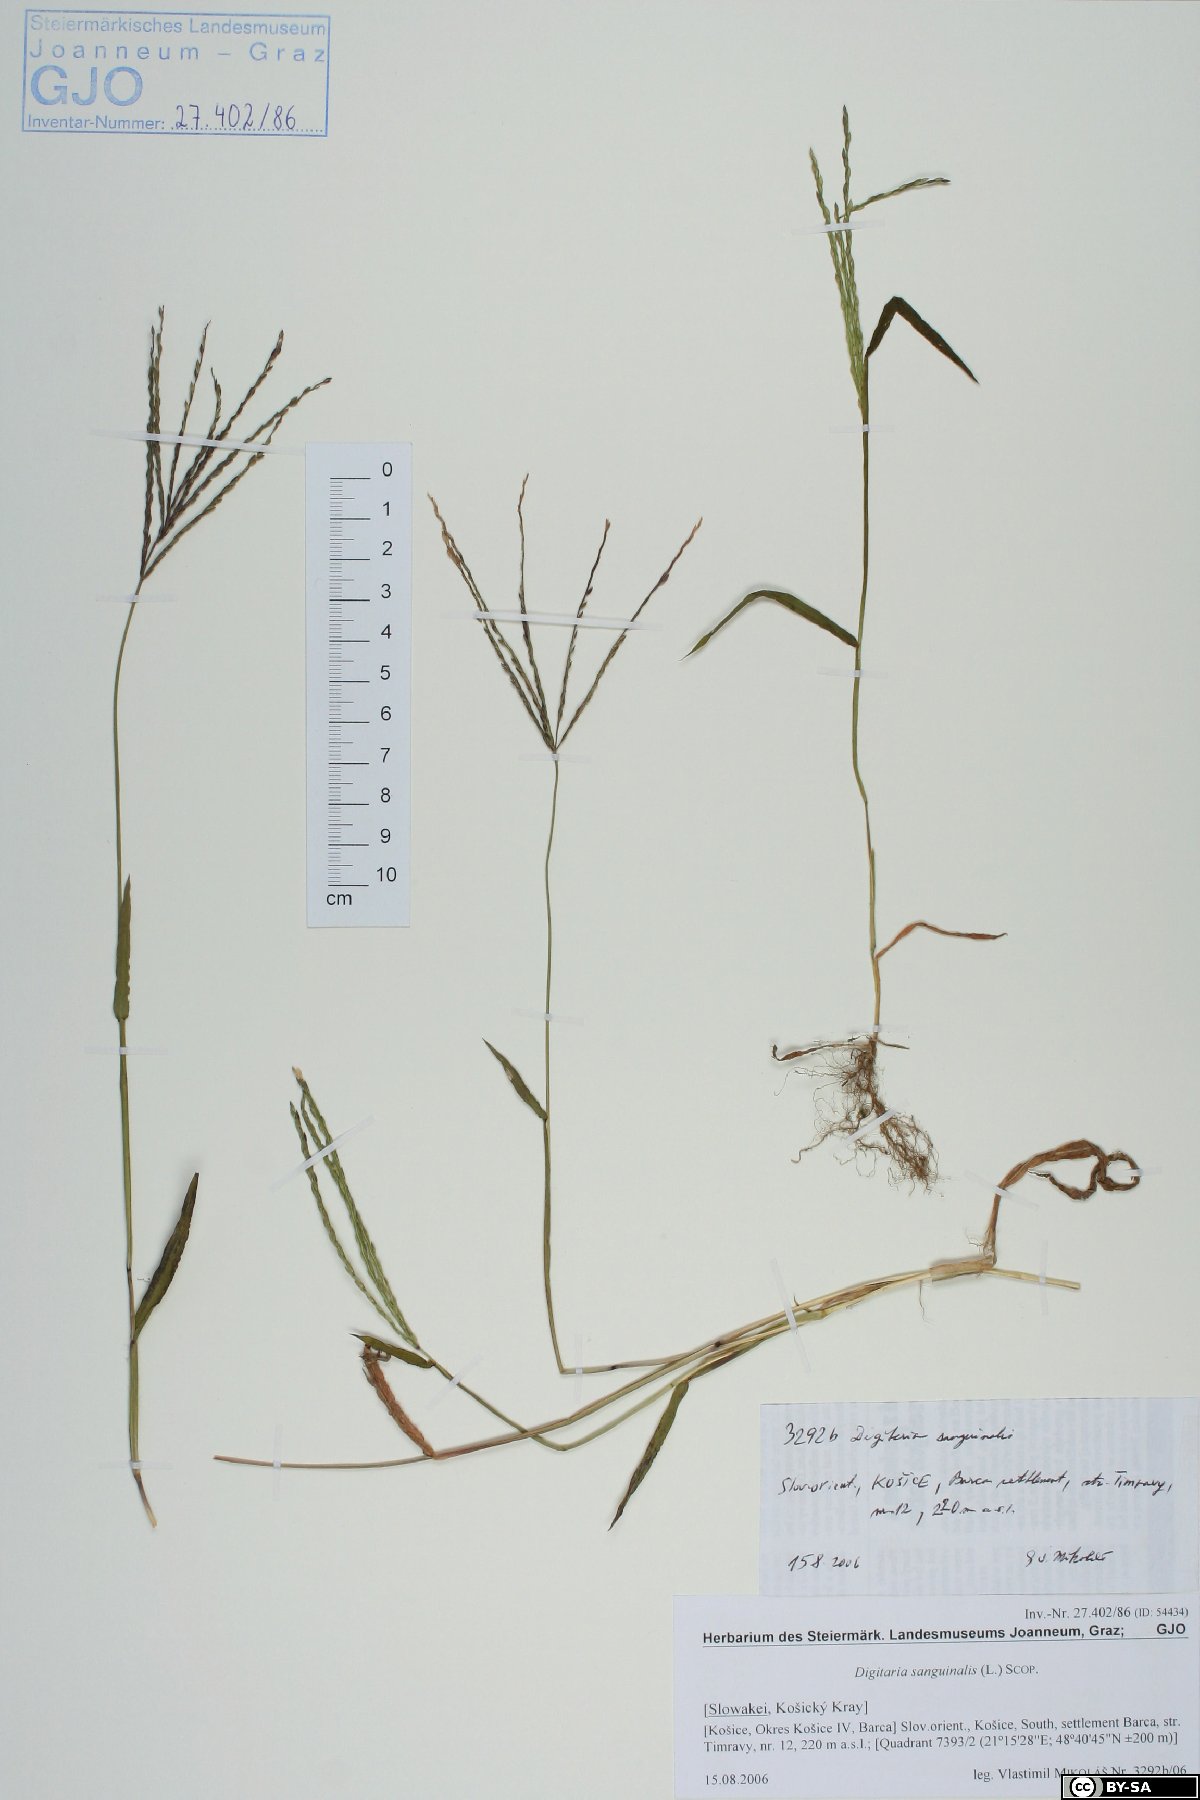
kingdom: Plantae
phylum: Tracheophyta
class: Liliopsida
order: Poales
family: Poaceae
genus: Digitaria
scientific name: Digitaria sanguinalis
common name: Hairy crabgrass
